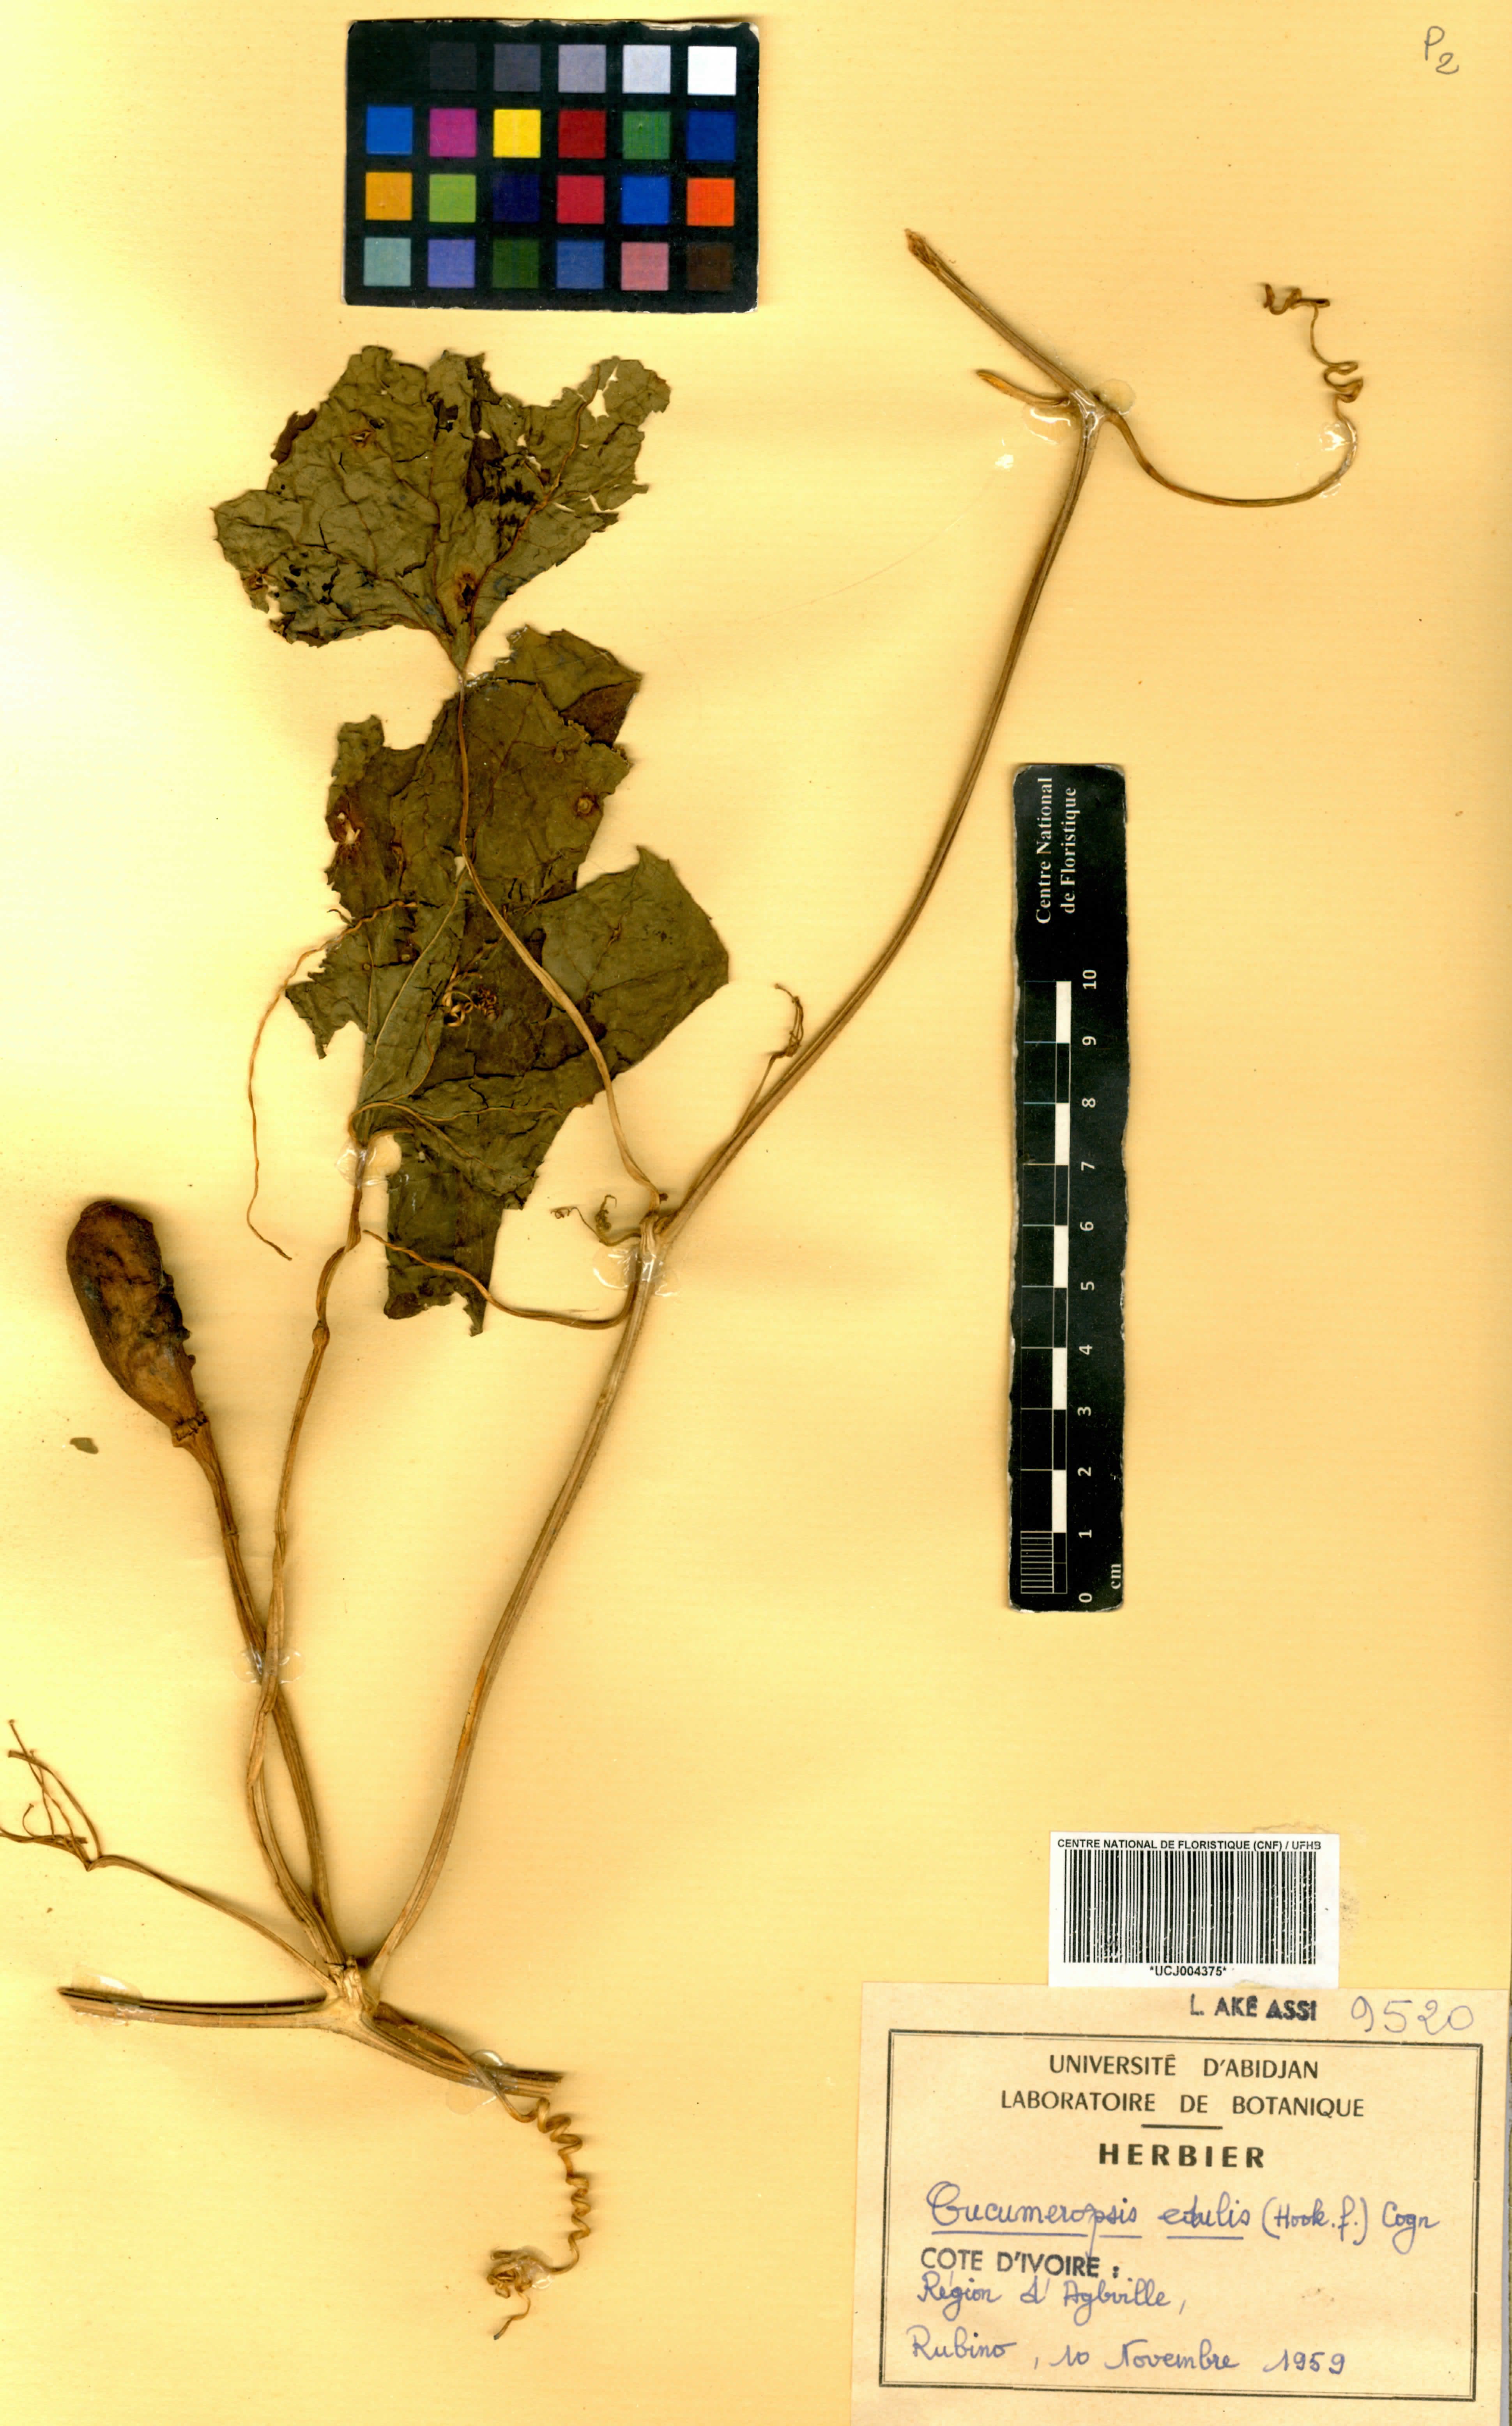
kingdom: Plantae
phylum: Tracheophyta
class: Magnoliopsida
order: Cucurbitales
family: Cucurbitaceae
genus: Melothria
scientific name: Melothria sphaerocarpa
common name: Egusi-itoo
